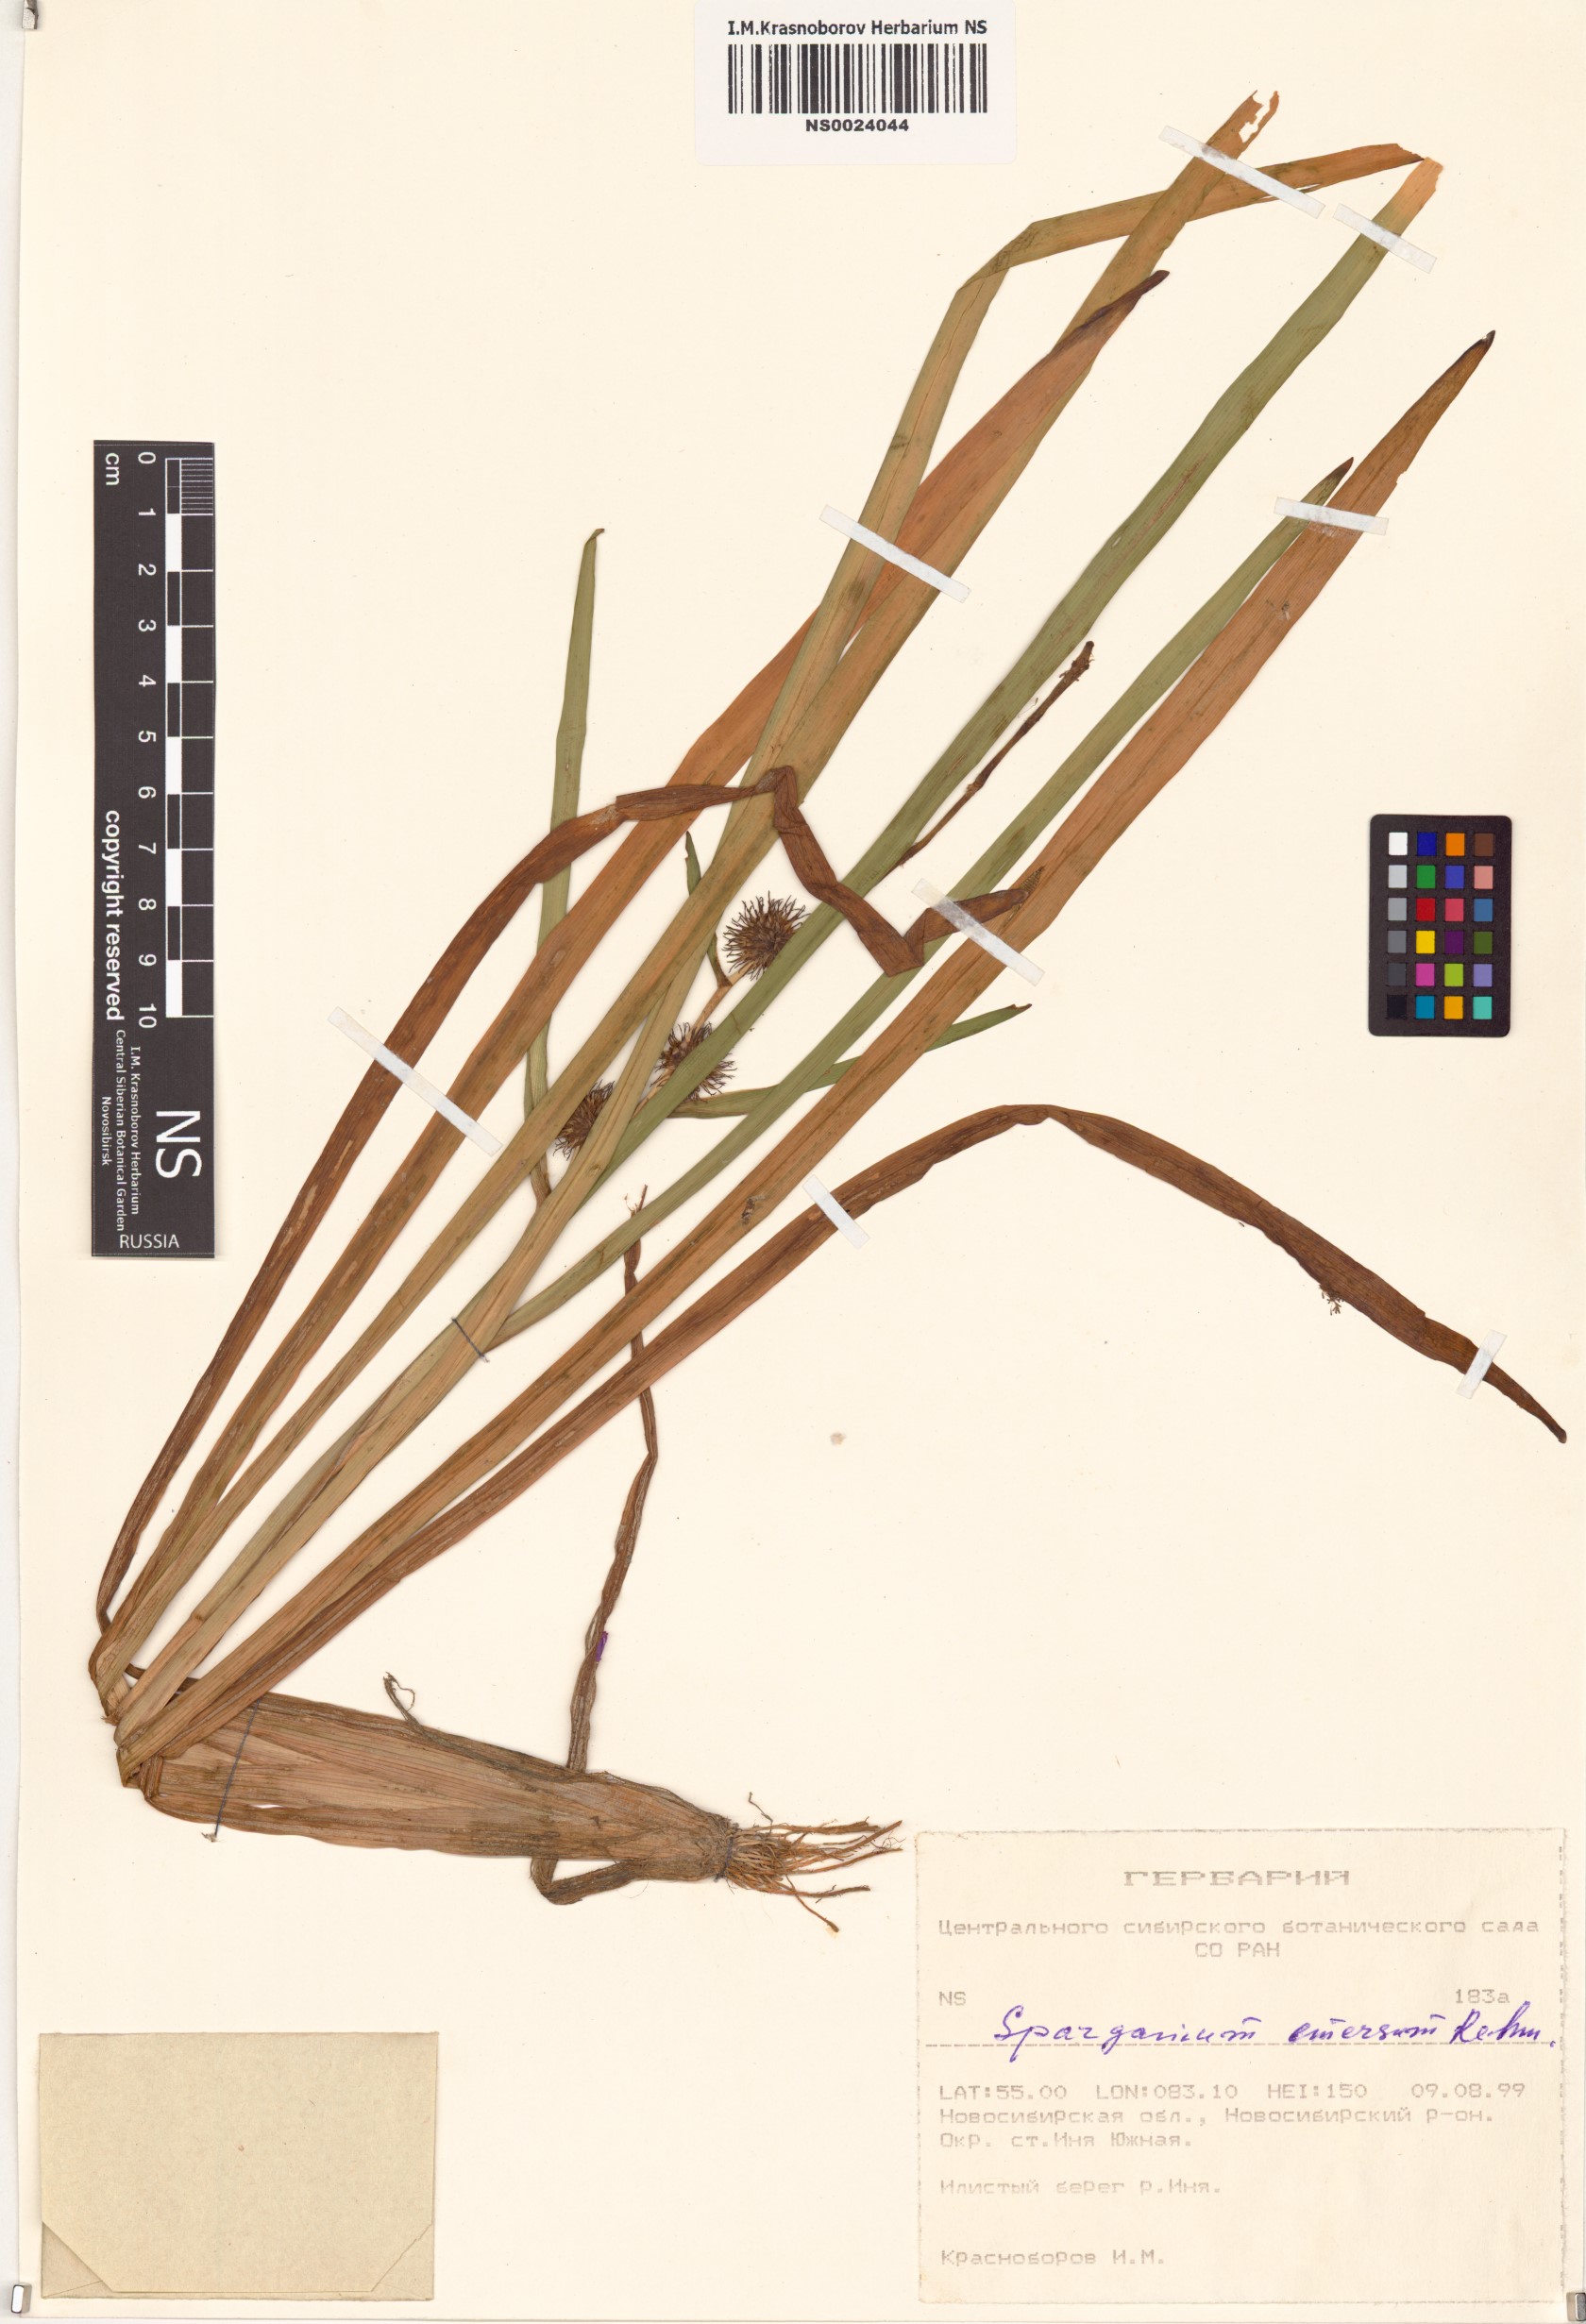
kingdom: Plantae
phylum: Tracheophyta
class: Liliopsida
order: Poales
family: Typhaceae
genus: Sparganium
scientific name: Sparganium emersum
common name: Unbranched bur-reed
